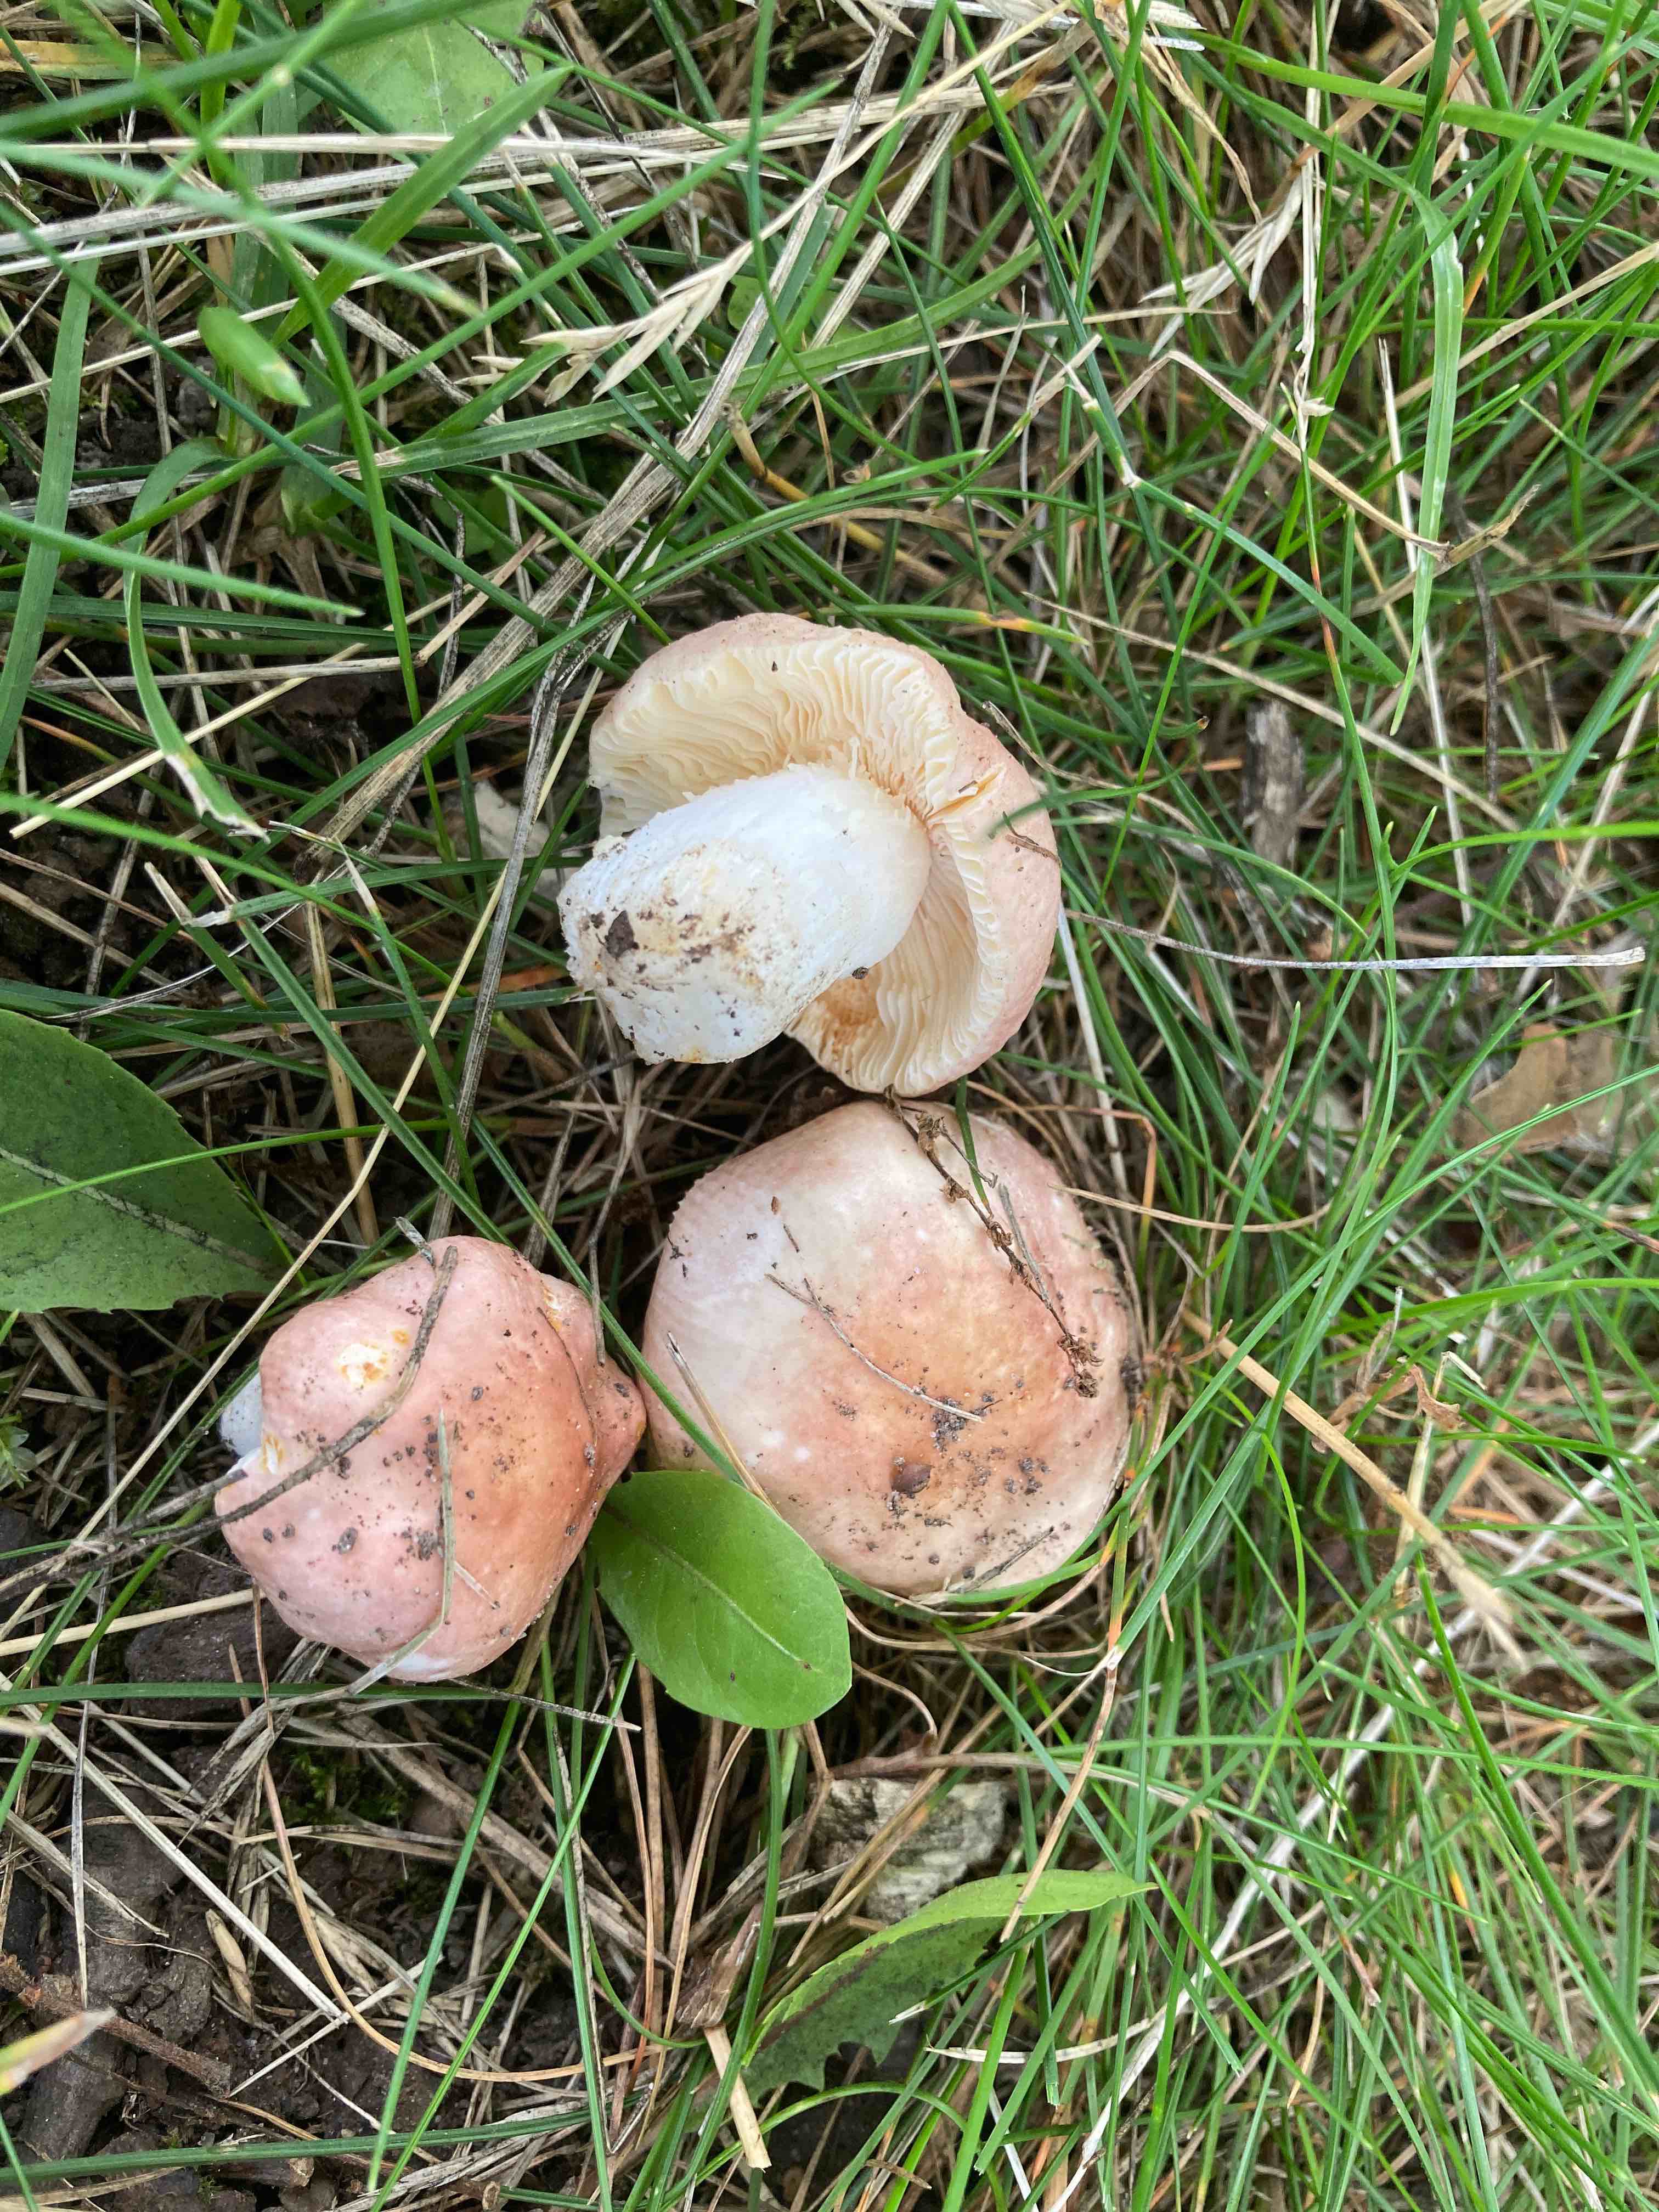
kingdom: Fungi
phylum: Basidiomycota
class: Agaricomycetes
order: Russulales
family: Russulaceae
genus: Russula
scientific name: Russula odorata
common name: duft-skørhat
